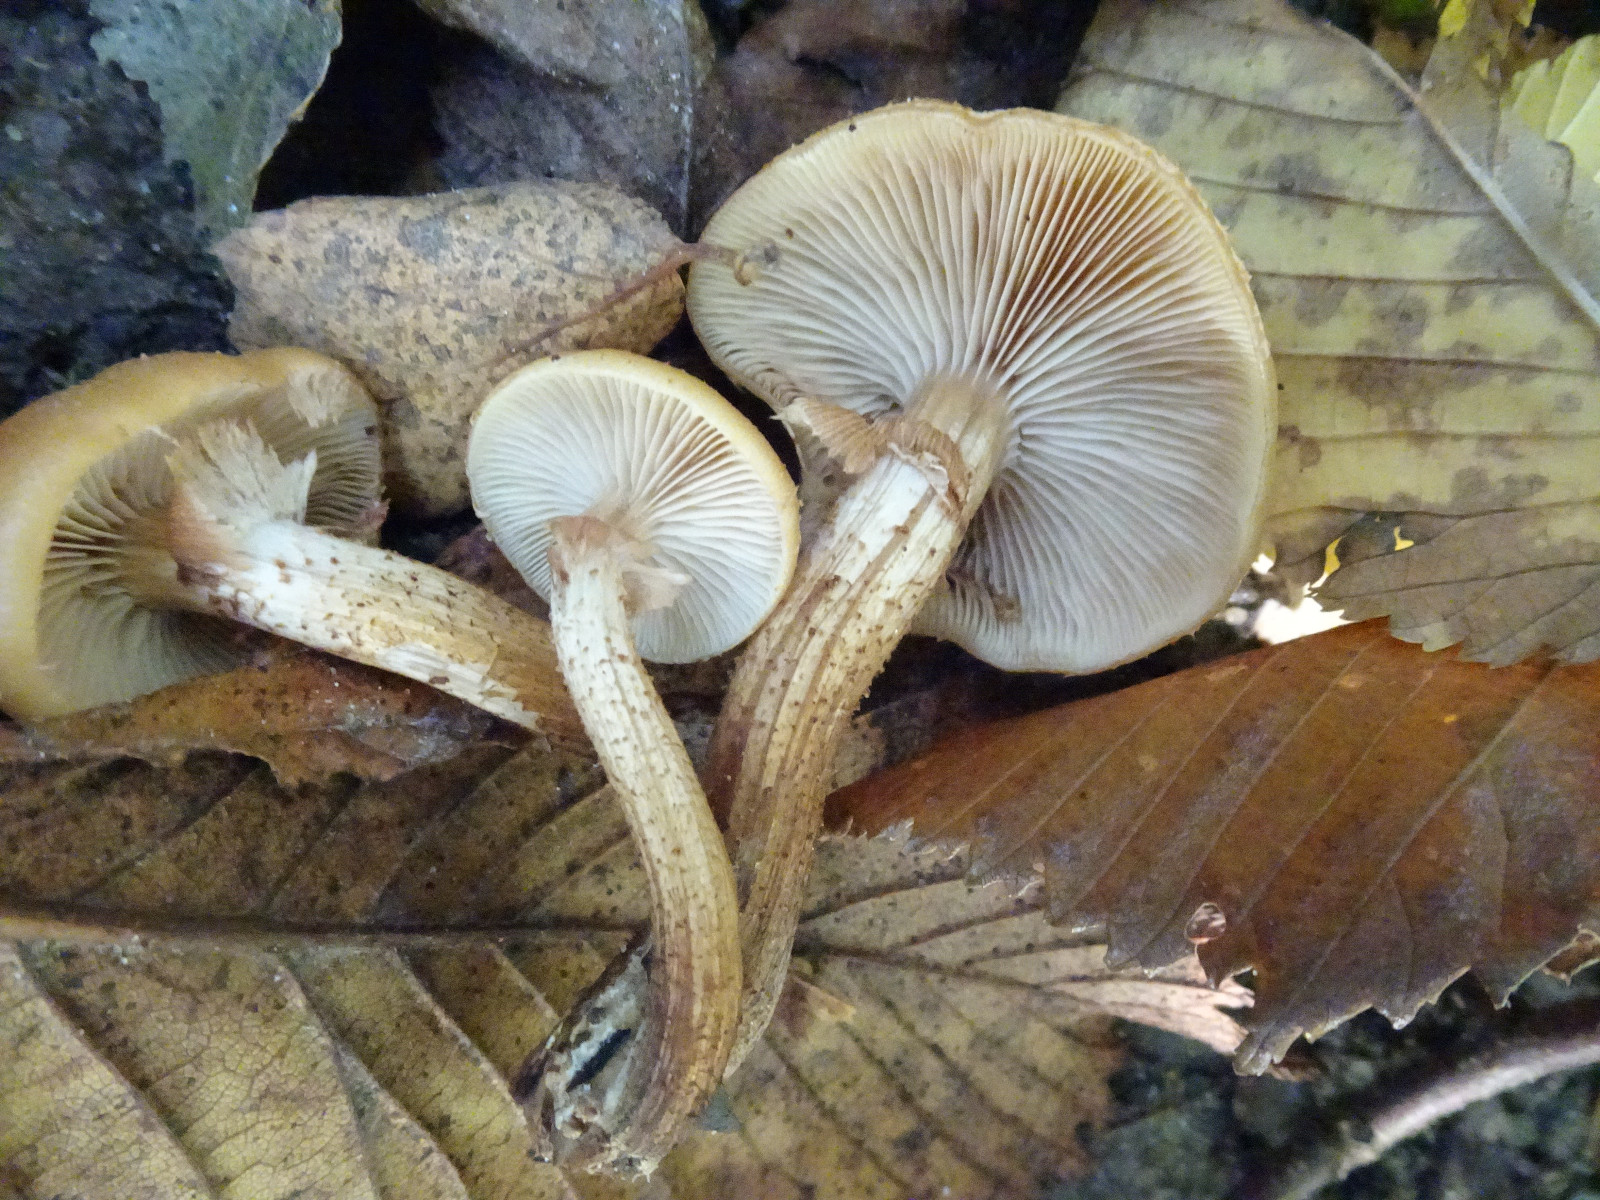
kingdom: Fungi
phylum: Basidiomycota
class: Agaricomycetes
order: Agaricales
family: Strophariaceae
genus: Kuehneromyces
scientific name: Kuehneromyces mutabilis
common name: foranderlig skælhat
